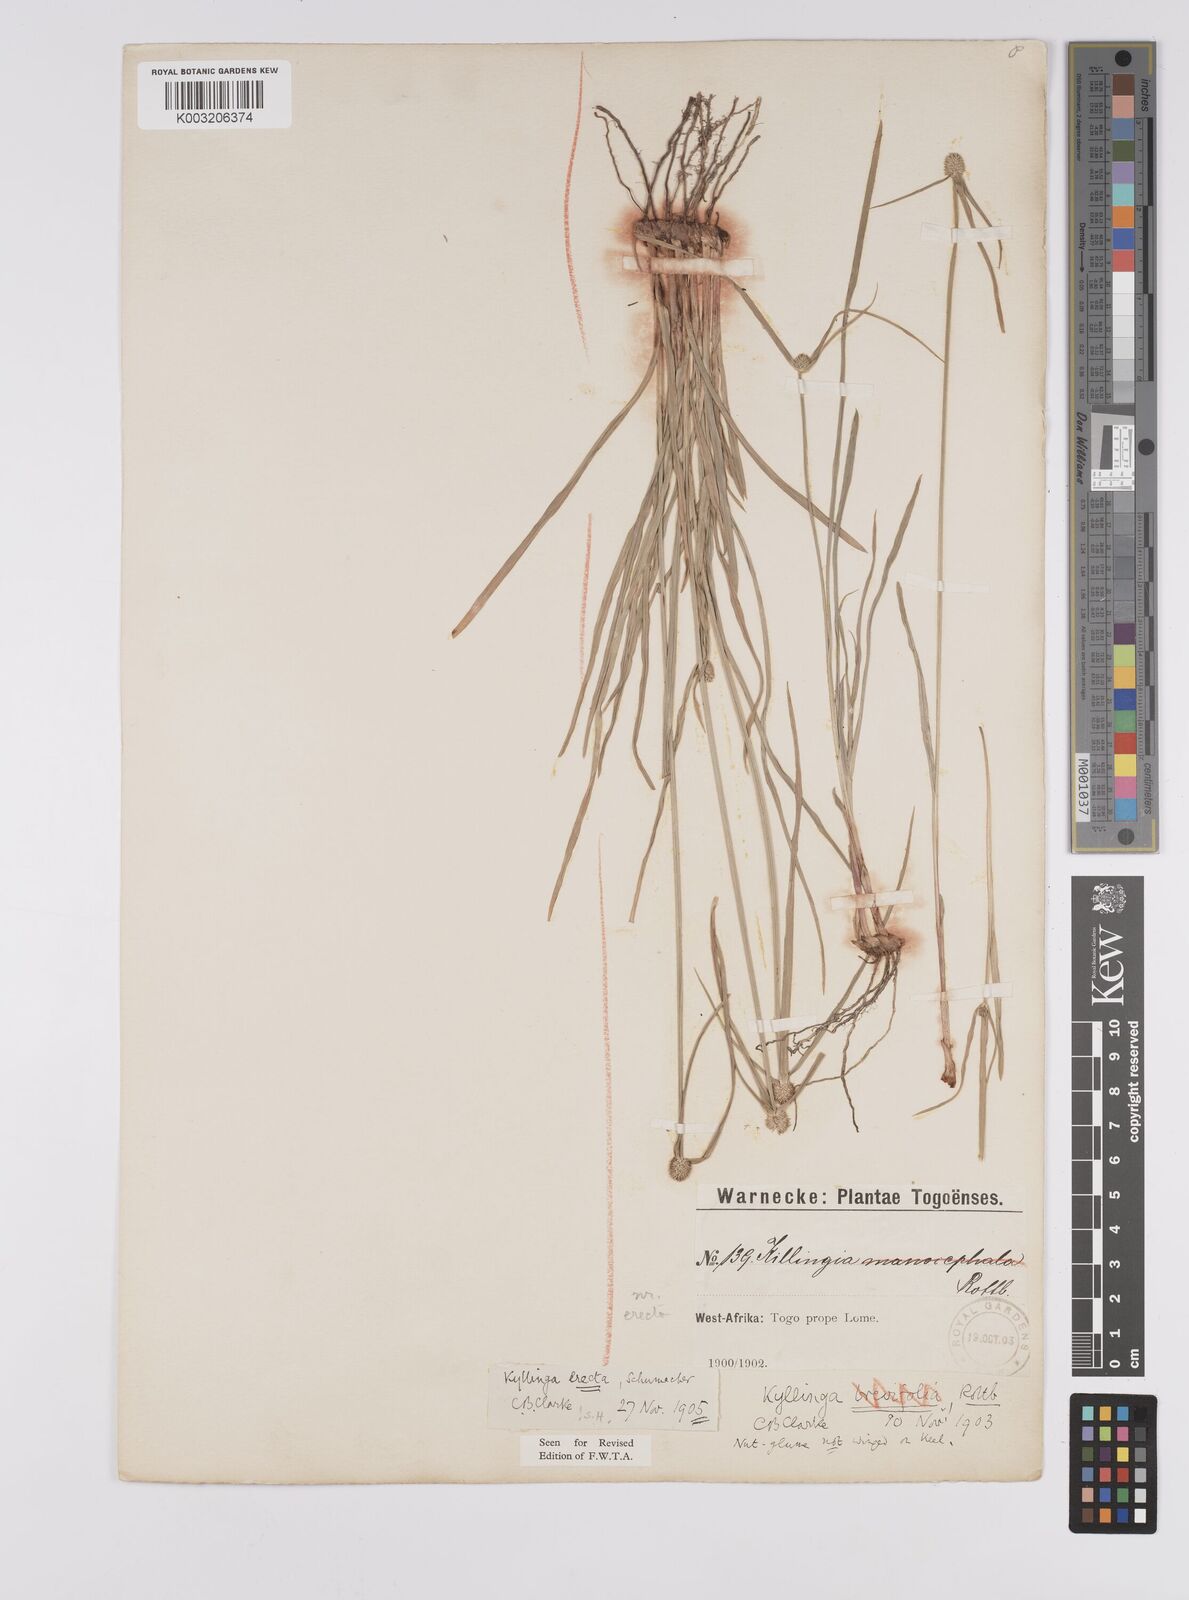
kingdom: Plantae
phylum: Tracheophyta
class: Liliopsida
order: Poales
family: Cyperaceae
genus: Cyperus
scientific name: Cyperus erectus
